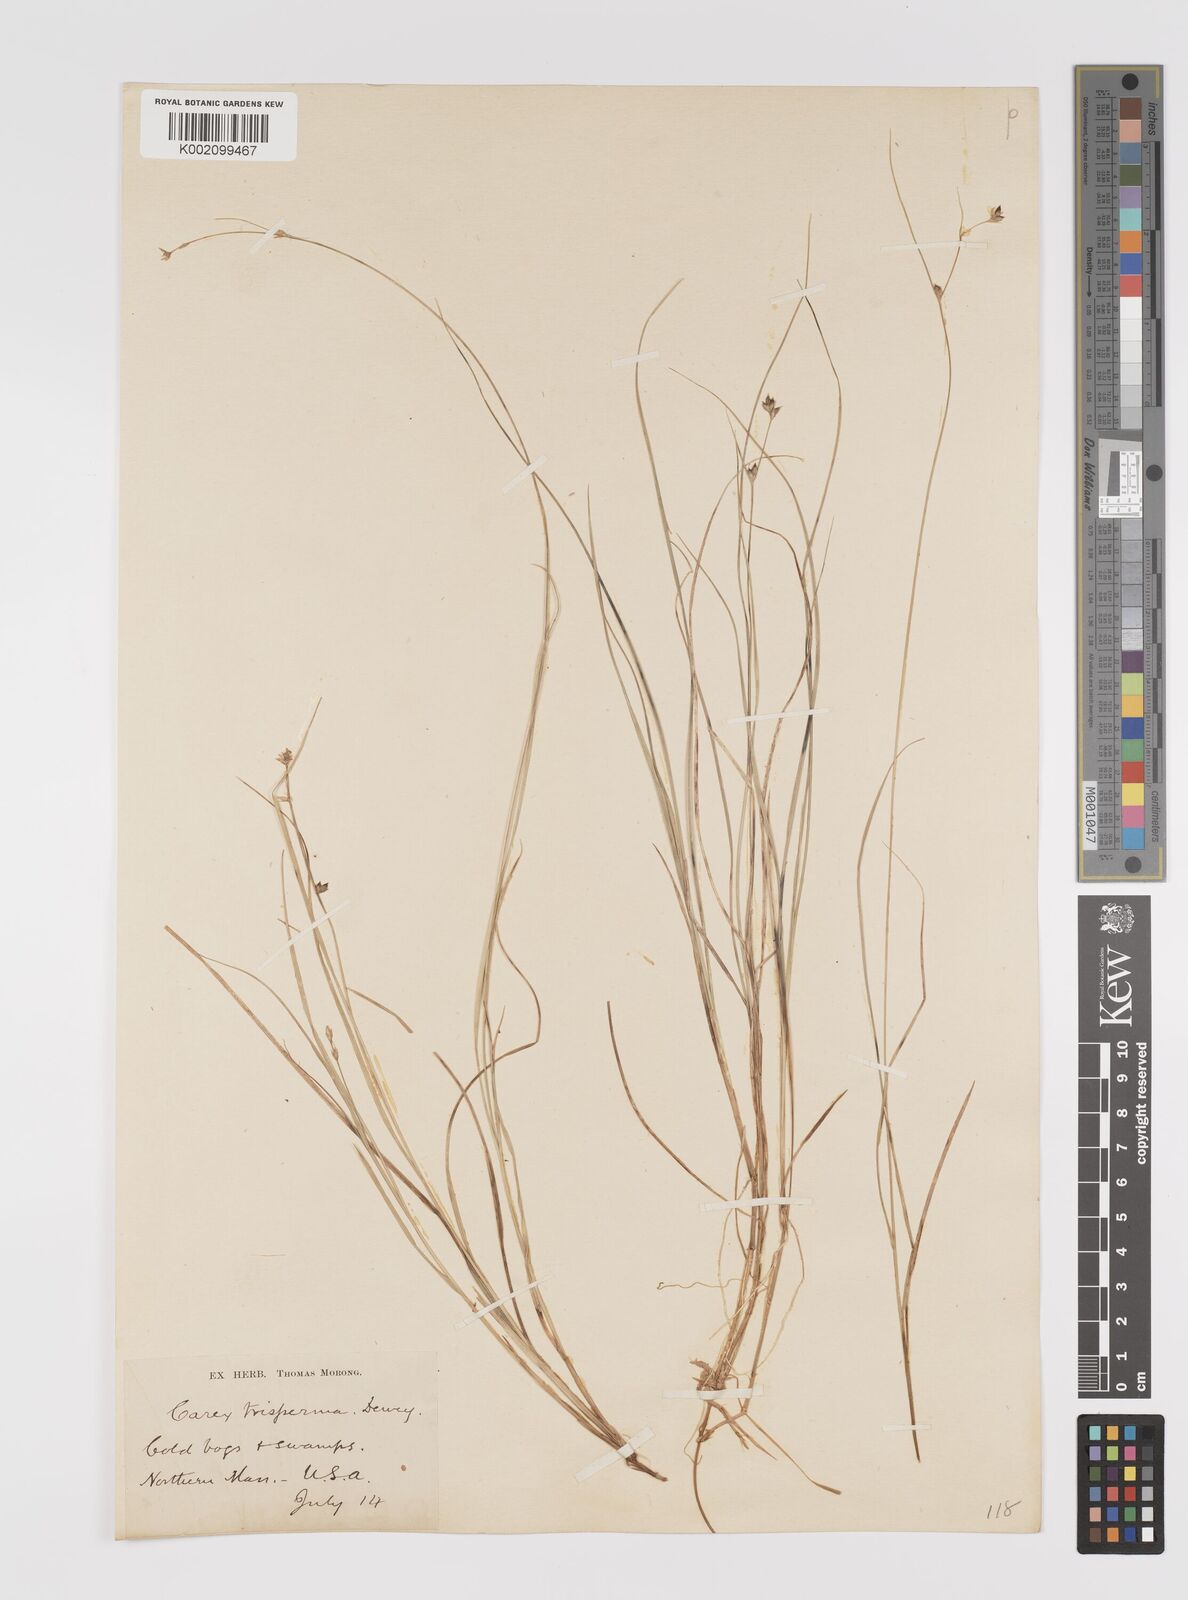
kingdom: Plantae
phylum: Tracheophyta
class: Liliopsida
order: Poales
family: Cyperaceae
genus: Carex
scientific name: Carex trisperma
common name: Three-seeded sedge
